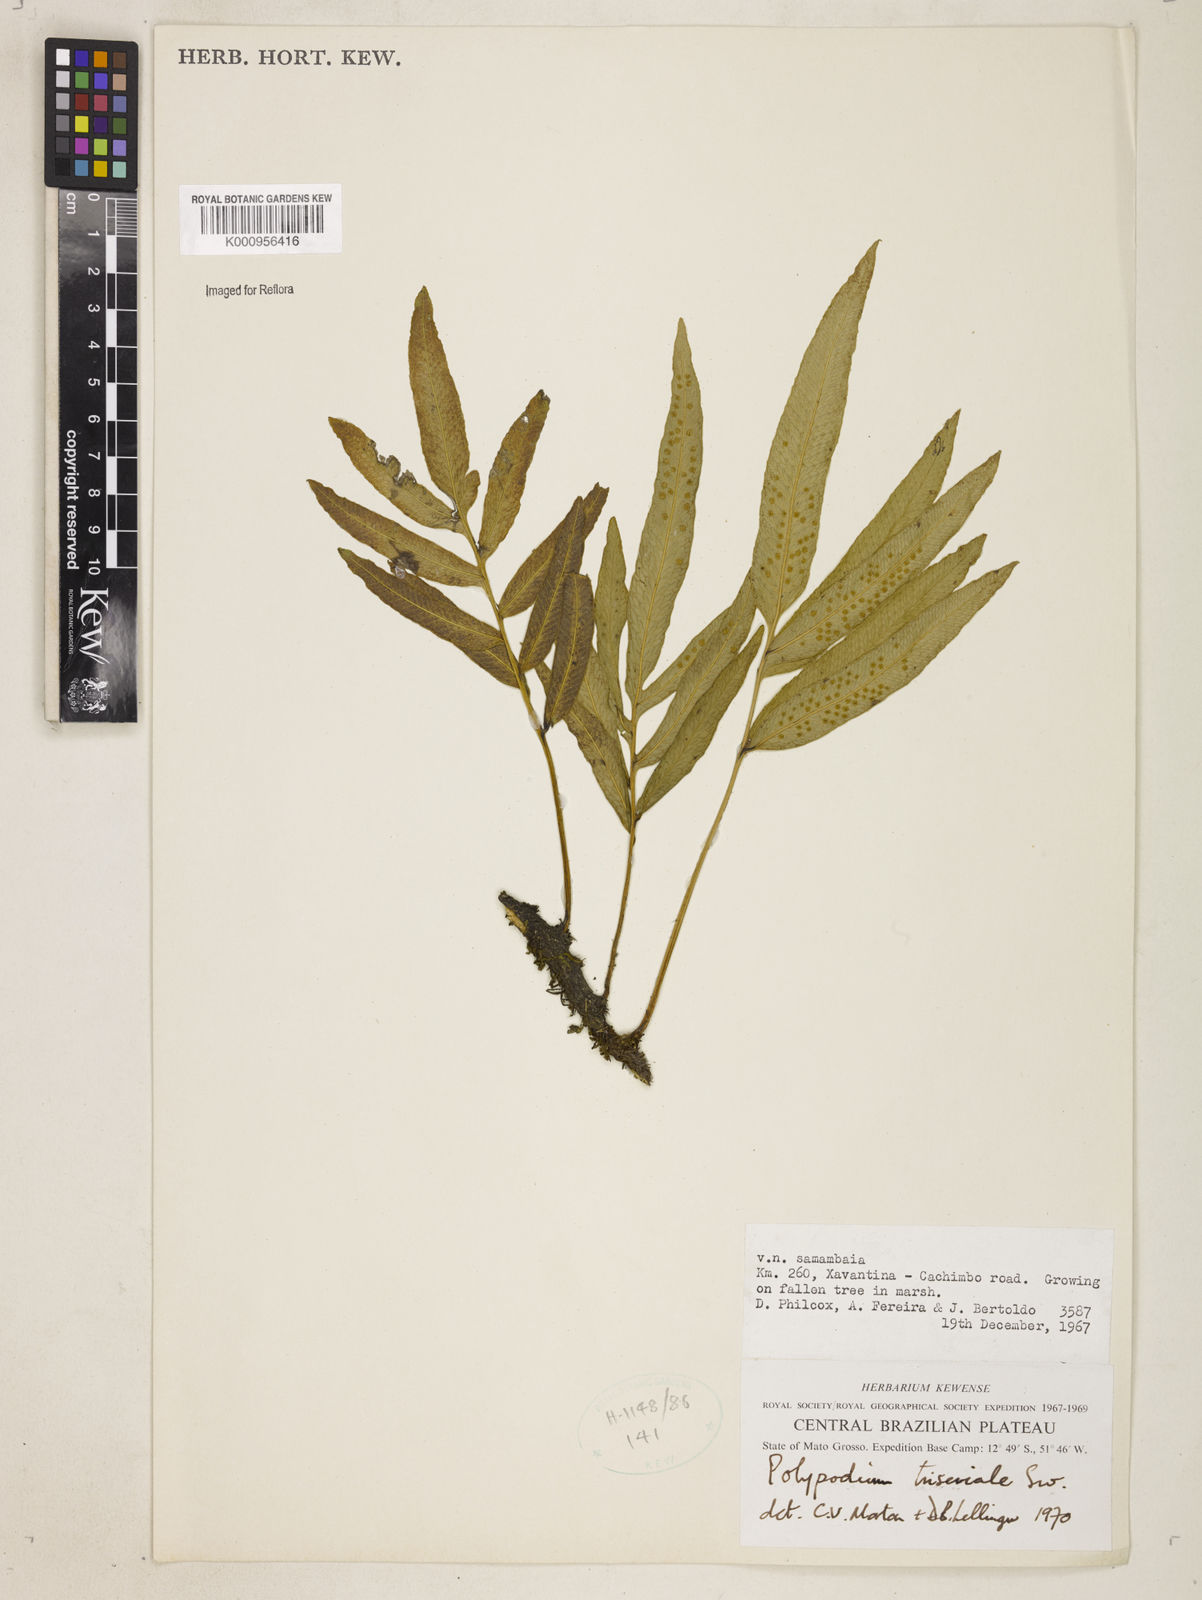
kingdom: Plantae
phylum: Tracheophyta
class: Polypodiopsida
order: Polypodiales
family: Polypodiaceae
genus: Serpocaulon
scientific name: Serpocaulon triseriale
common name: Angle-vein fern
